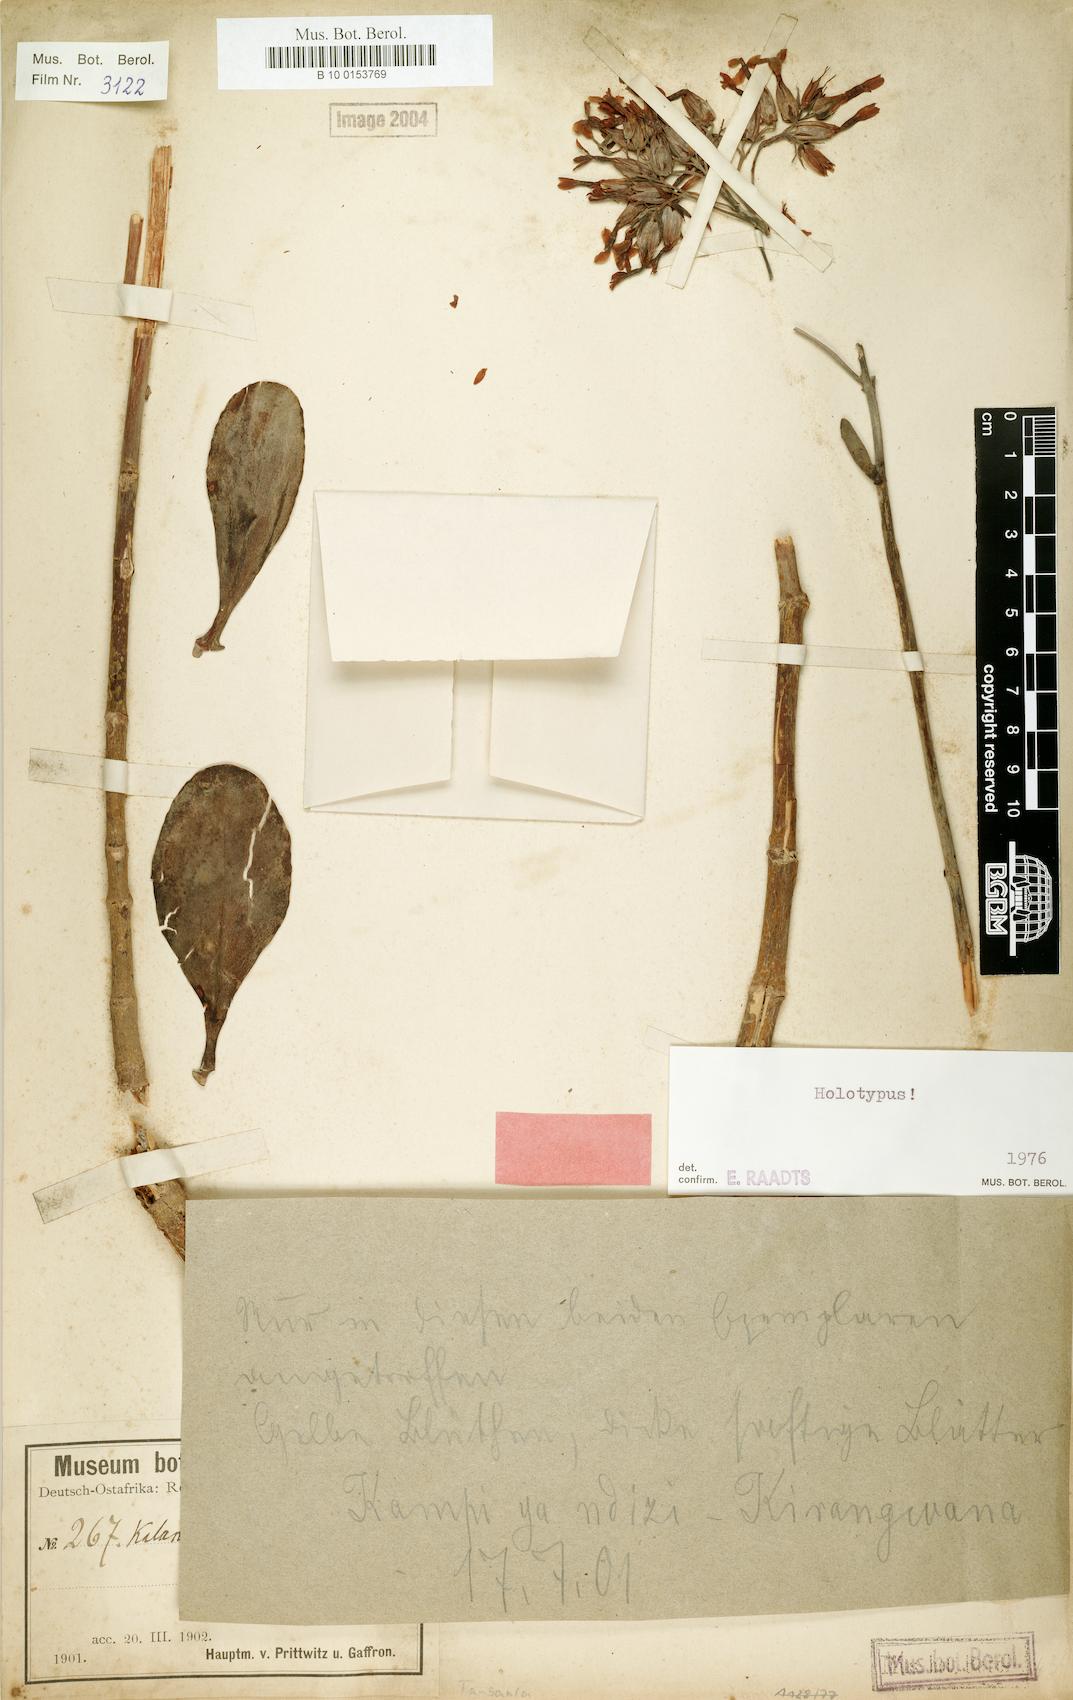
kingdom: Plantae
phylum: Tracheophyta
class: Magnoliopsida
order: Saxifragales
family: Crassulaceae
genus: Kalanchoe
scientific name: Kalanchoe prittwitzii
